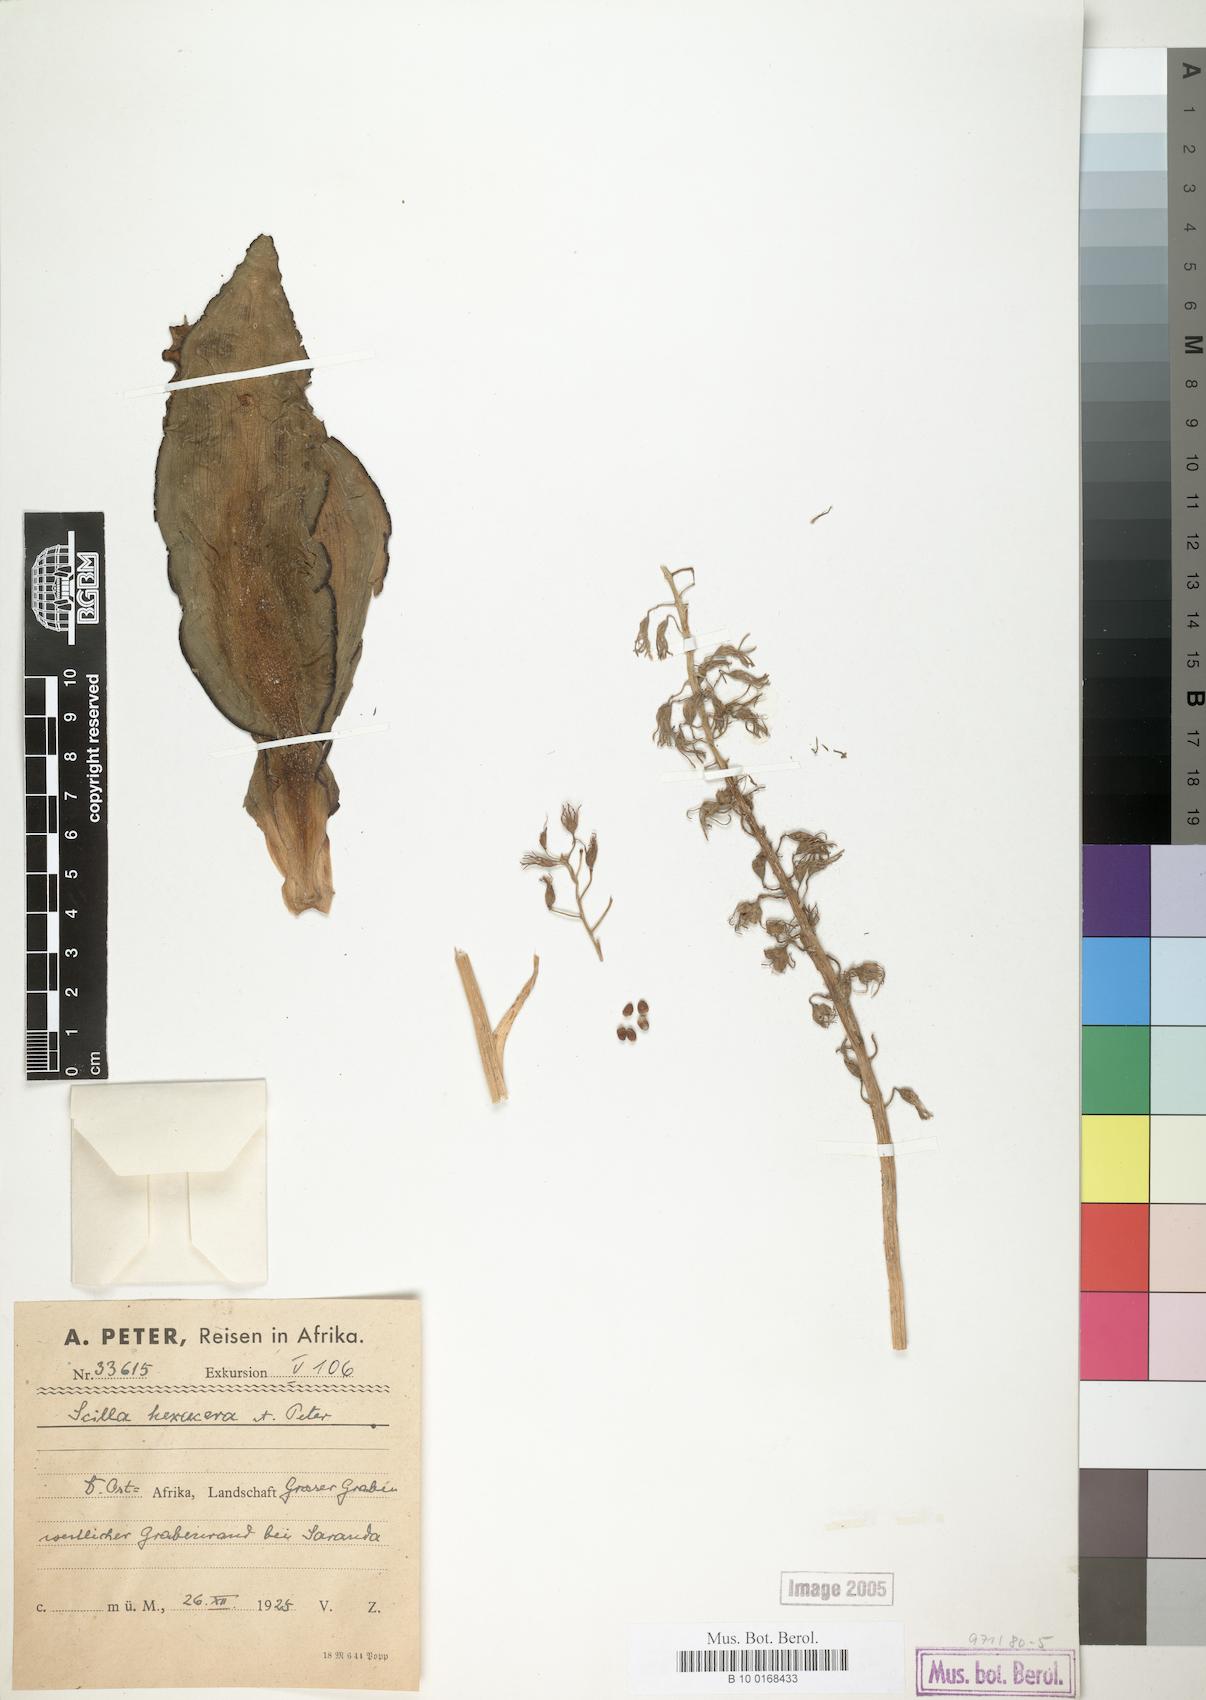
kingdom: Plantae
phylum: Tracheophyta
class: Liliopsida
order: Asparagales
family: Asparagaceae
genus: Scilla
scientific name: Scilla
